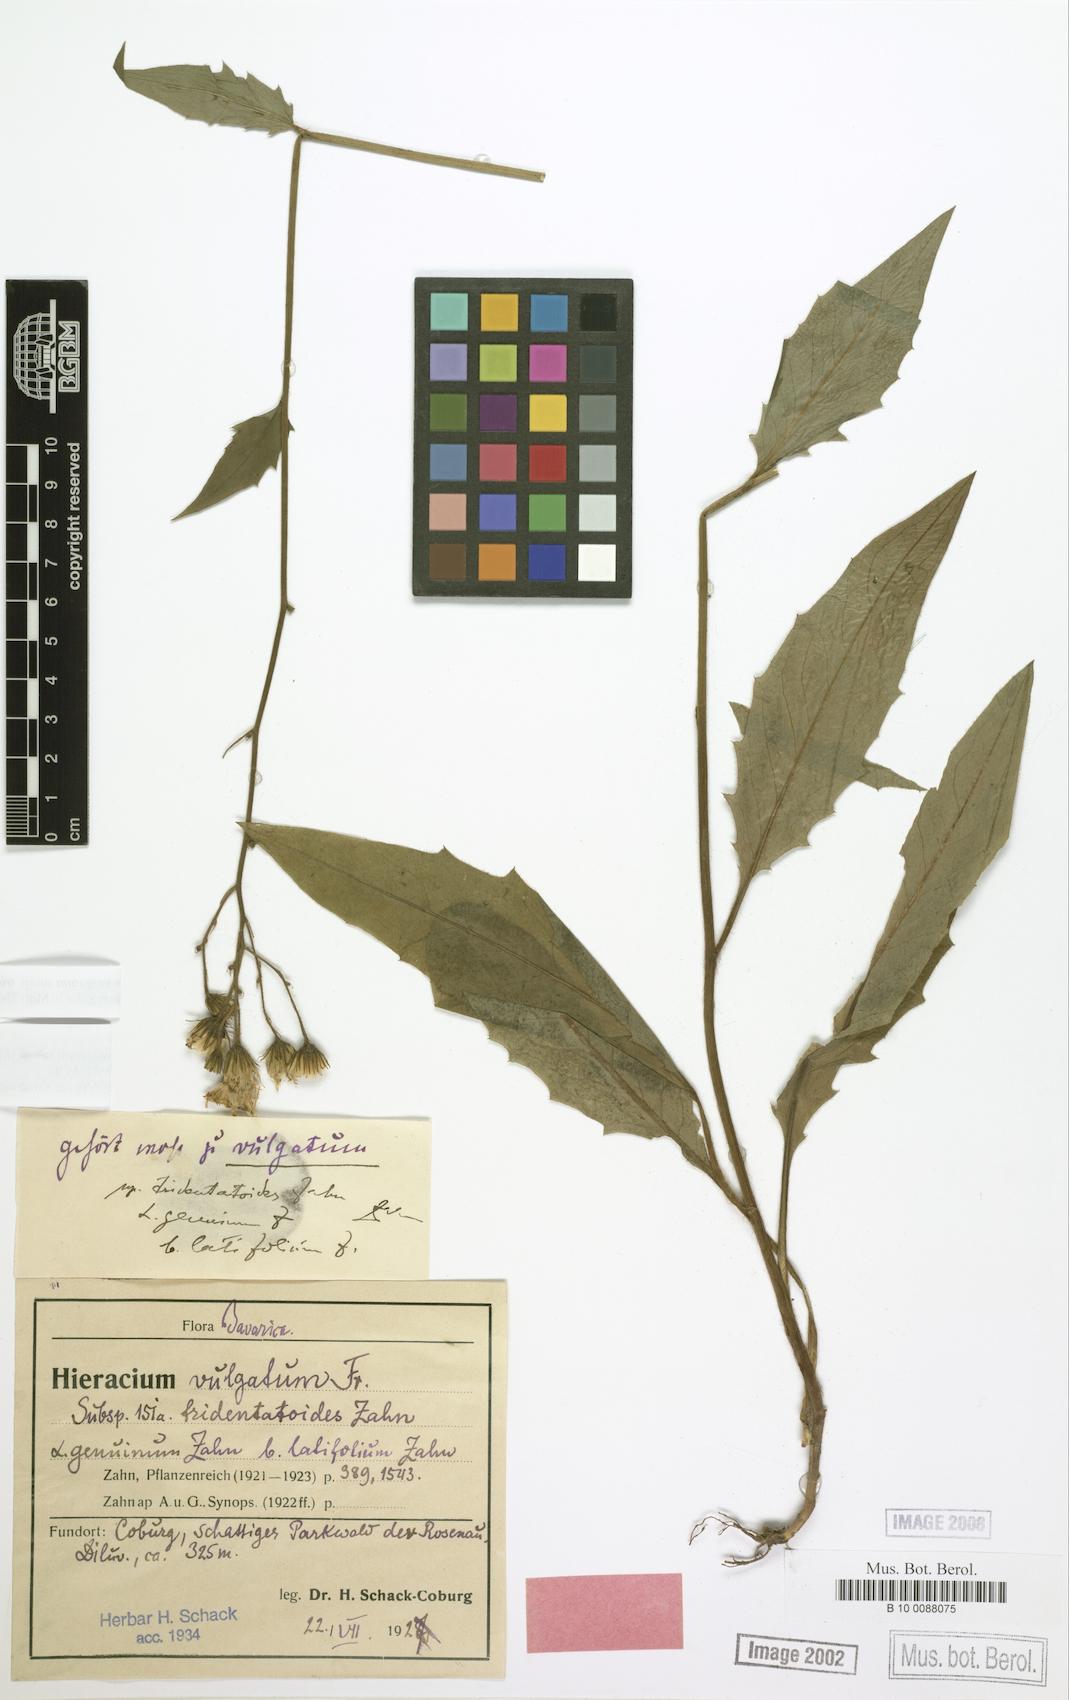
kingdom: Plantae
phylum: Tracheophyta
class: Magnoliopsida
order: Asterales
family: Asteraceae
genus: Hieracium
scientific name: Hieracium lachenalii
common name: Common hawkweed
